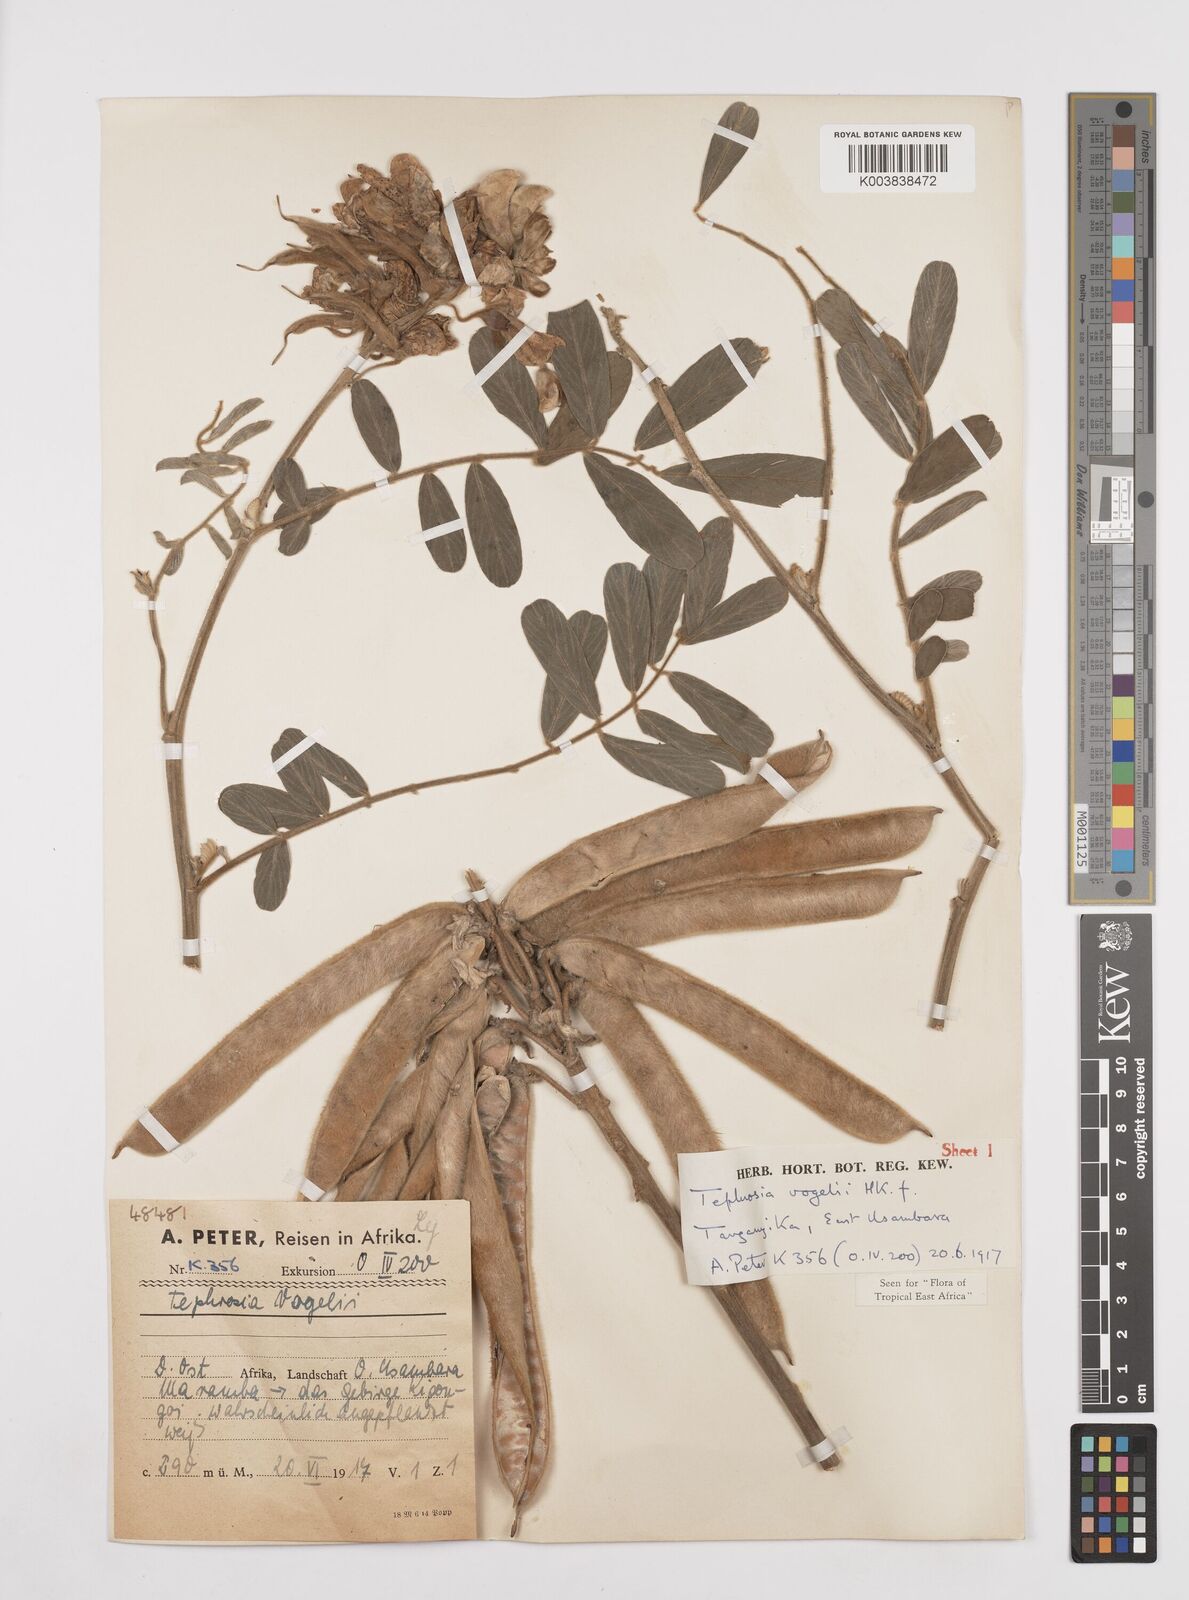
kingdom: Plantae
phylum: Tracheophyta
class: Magnoliopsida
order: Fabales
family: Fabaceae
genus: Tephrosia
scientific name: Tephrosia vogelii
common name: Vogel tephrosia
